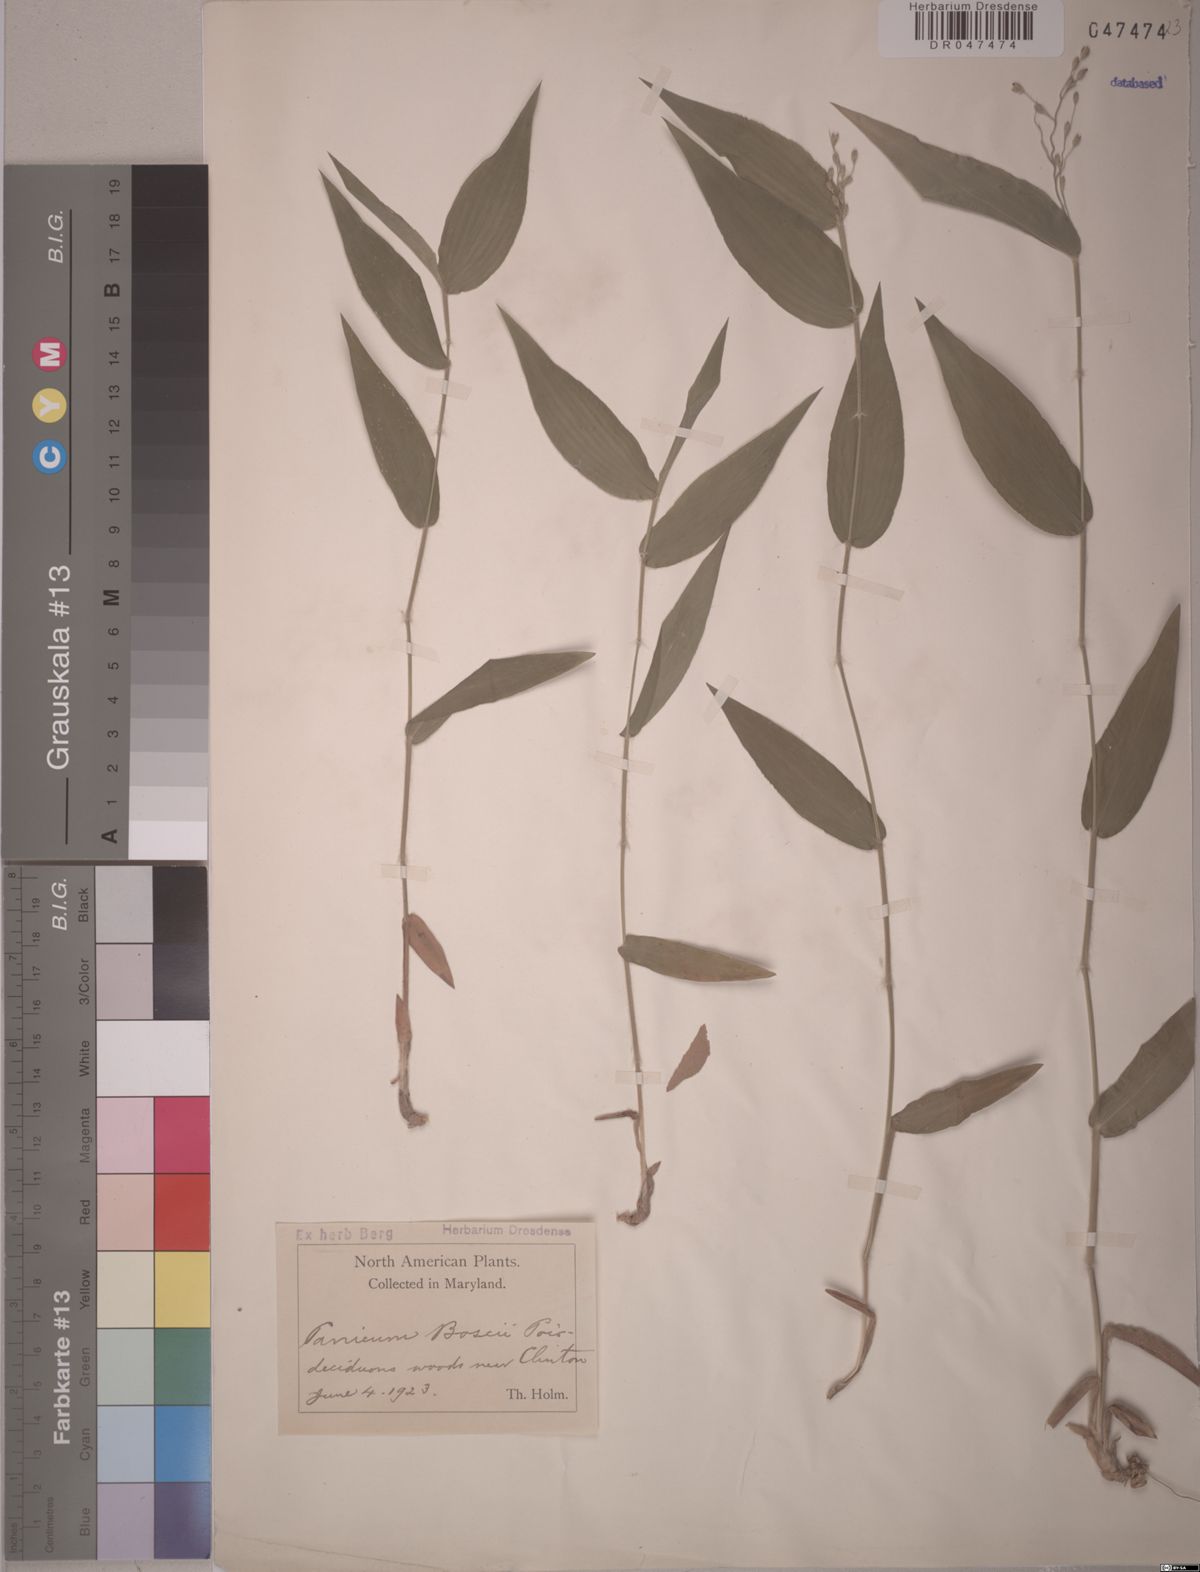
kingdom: Plantae
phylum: Tracheophyta
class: Liliopsida
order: Poales
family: Poaceae
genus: Dichanthelium
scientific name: Dichanthelium boscii
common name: Bosc's panic grass
